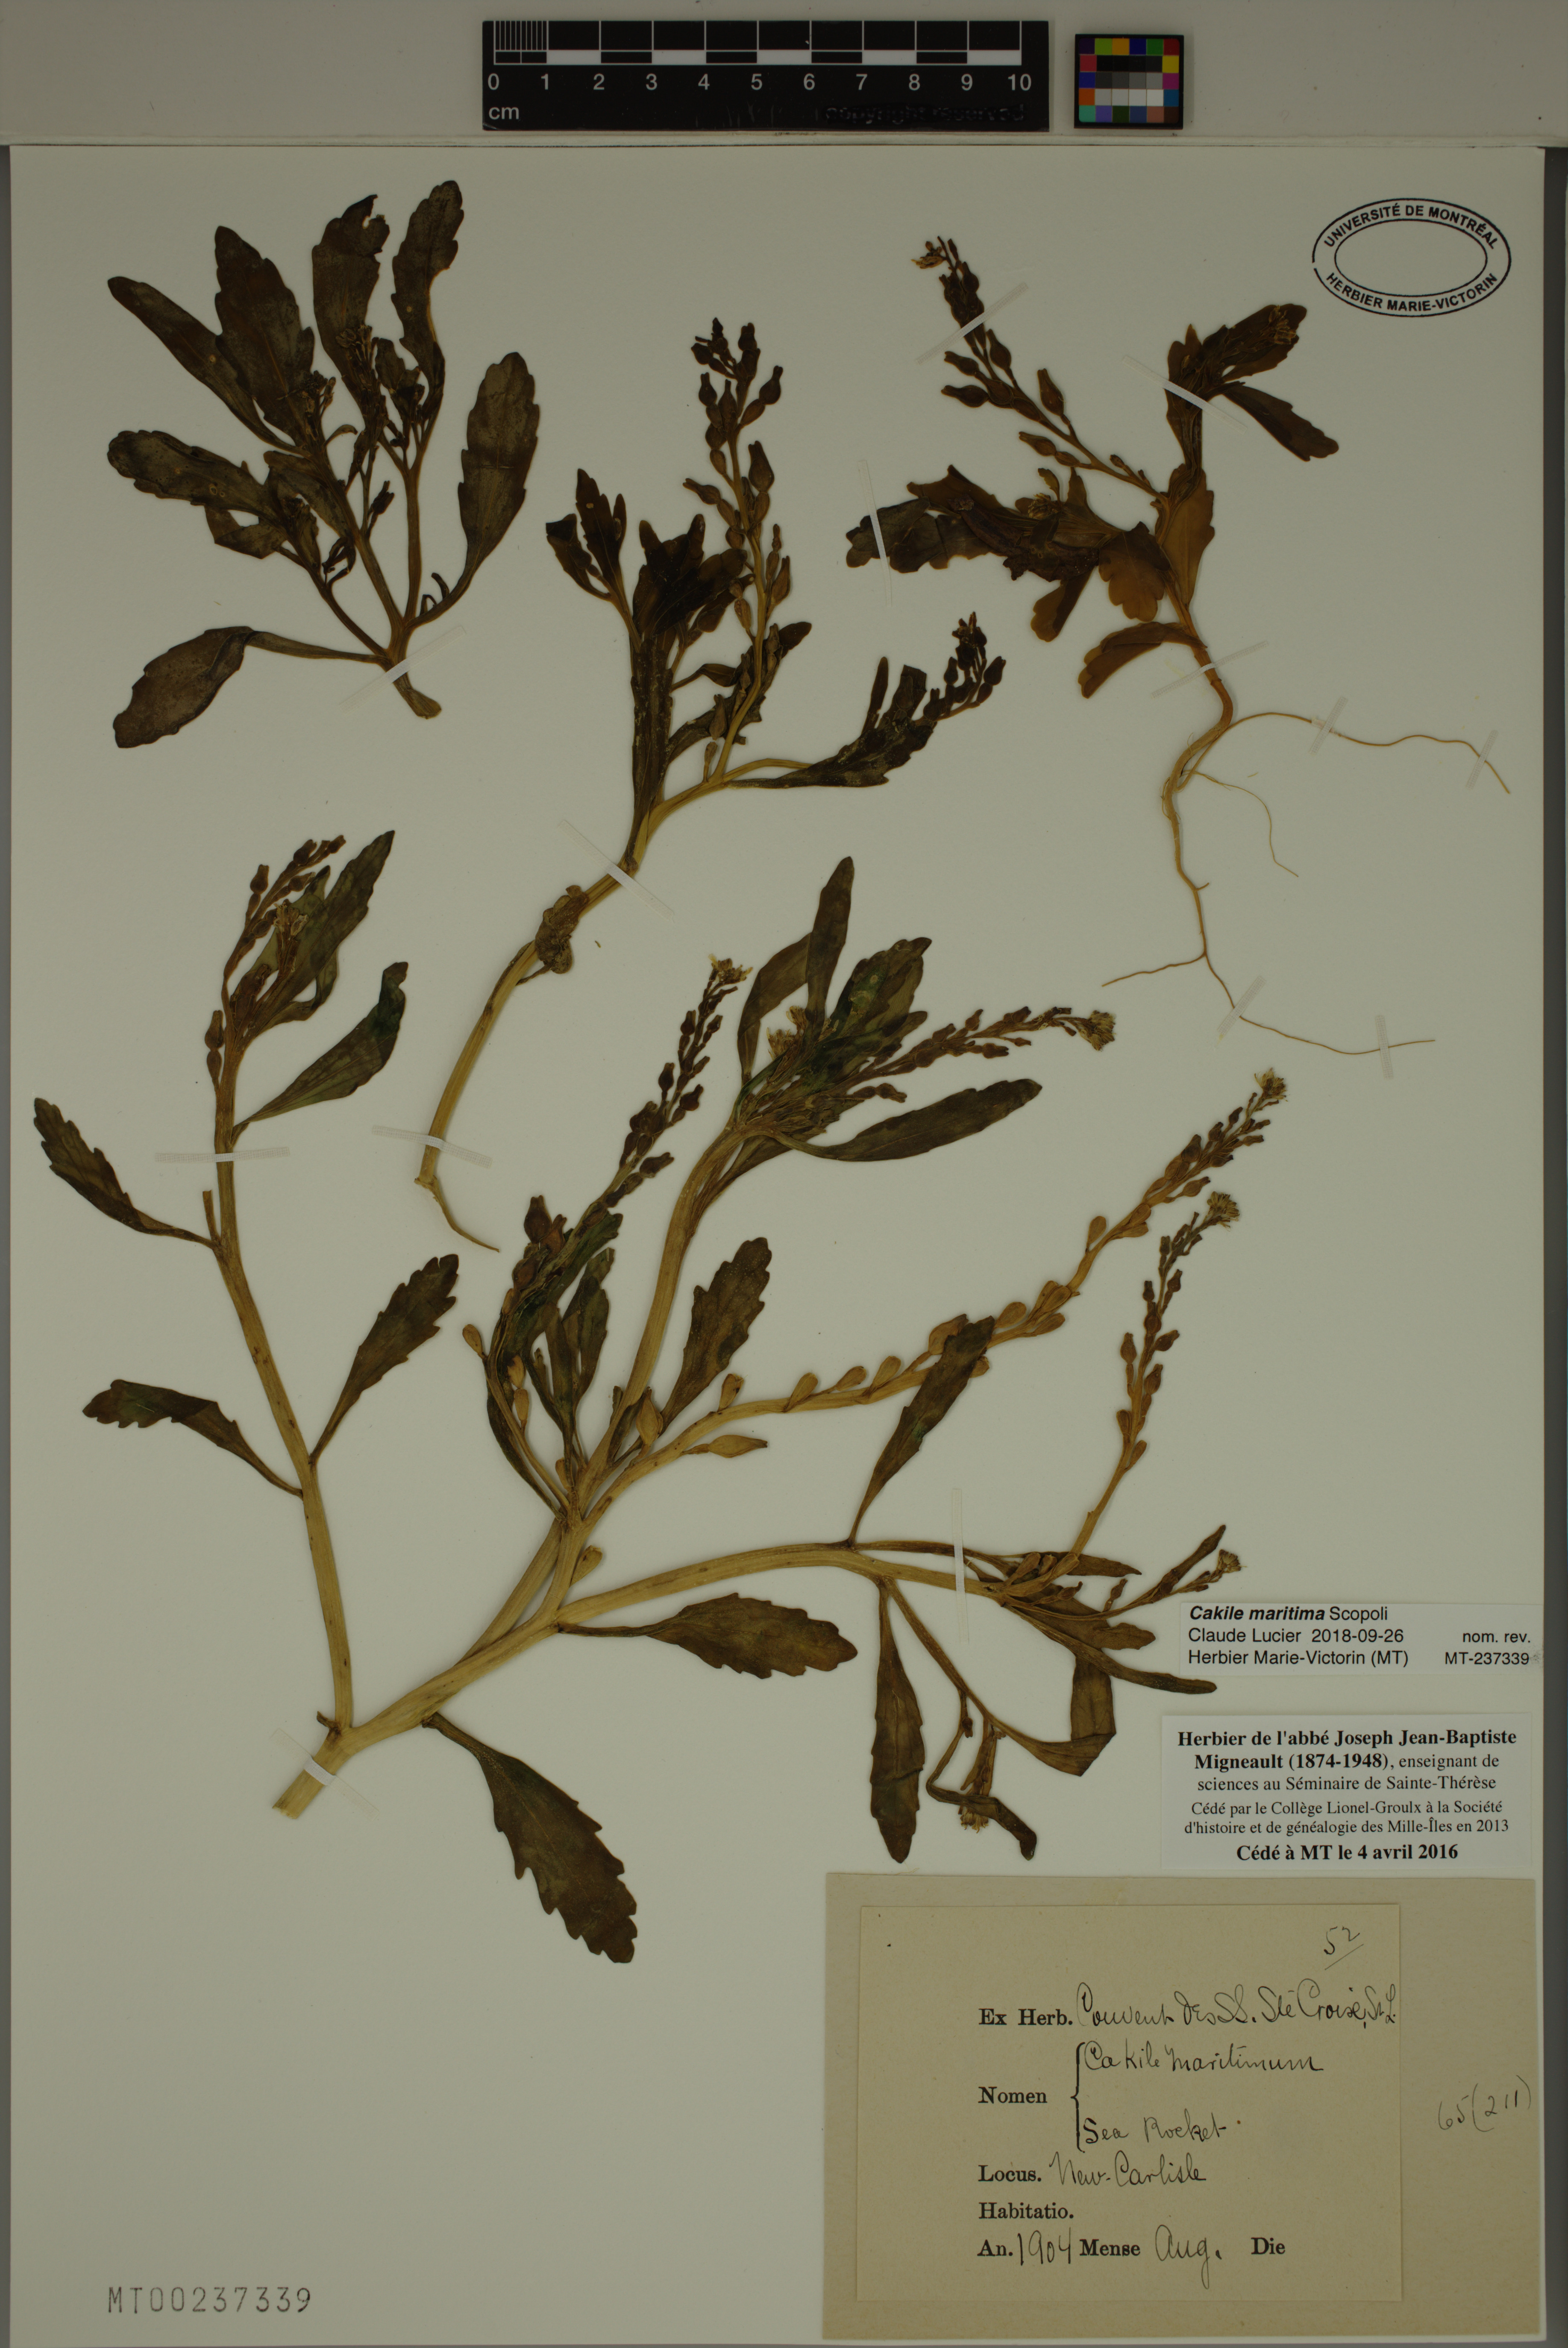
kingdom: Plantae
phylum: Tracheophyta
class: Magnoliopsida
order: Brassicales
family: Brassicaceae
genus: Cakile
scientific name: Cakile maritima
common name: Sea rocket
